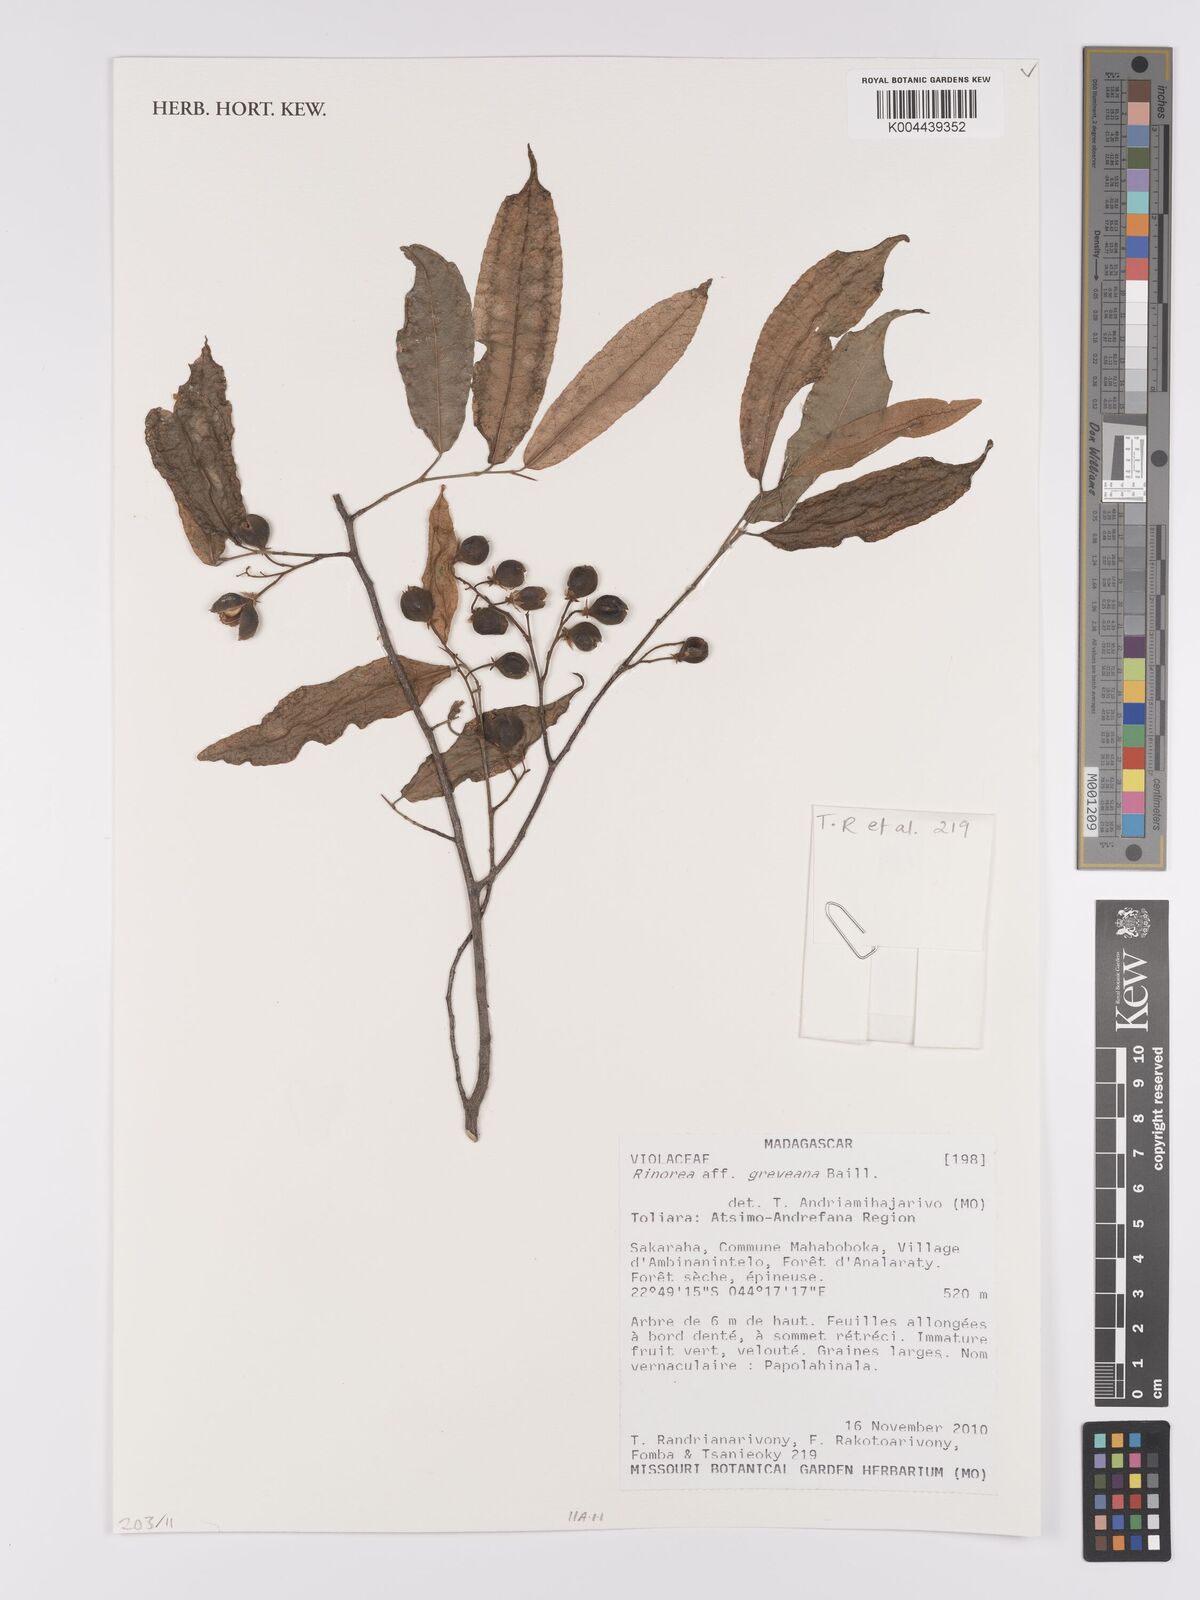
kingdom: Plantae
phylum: Tracheophyta
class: Magnoliopsida
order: Malpighiales
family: Violaceae
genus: Rinorea
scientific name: Rinorea greveana
